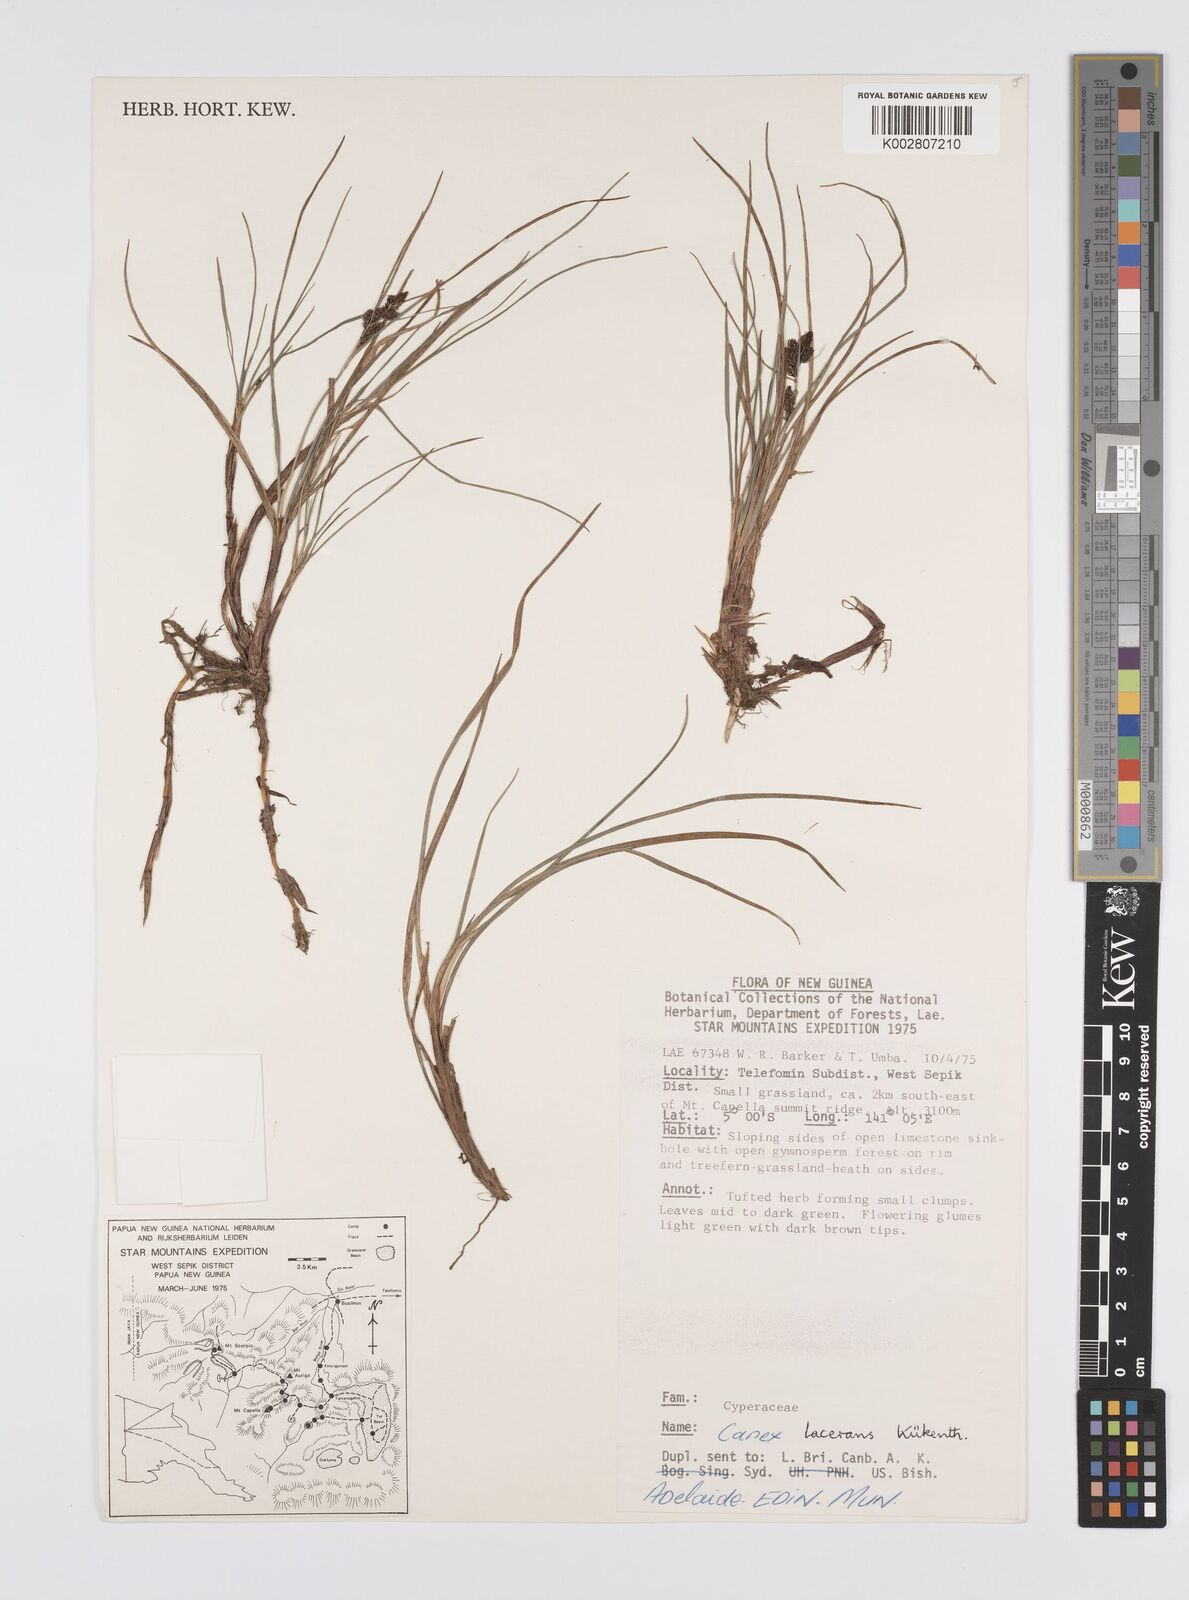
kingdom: Plantae
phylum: Tracheophyta
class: Liliopsida
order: Poales
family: Cyperaceae
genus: Carex
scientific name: Carex gaudichaudiana
